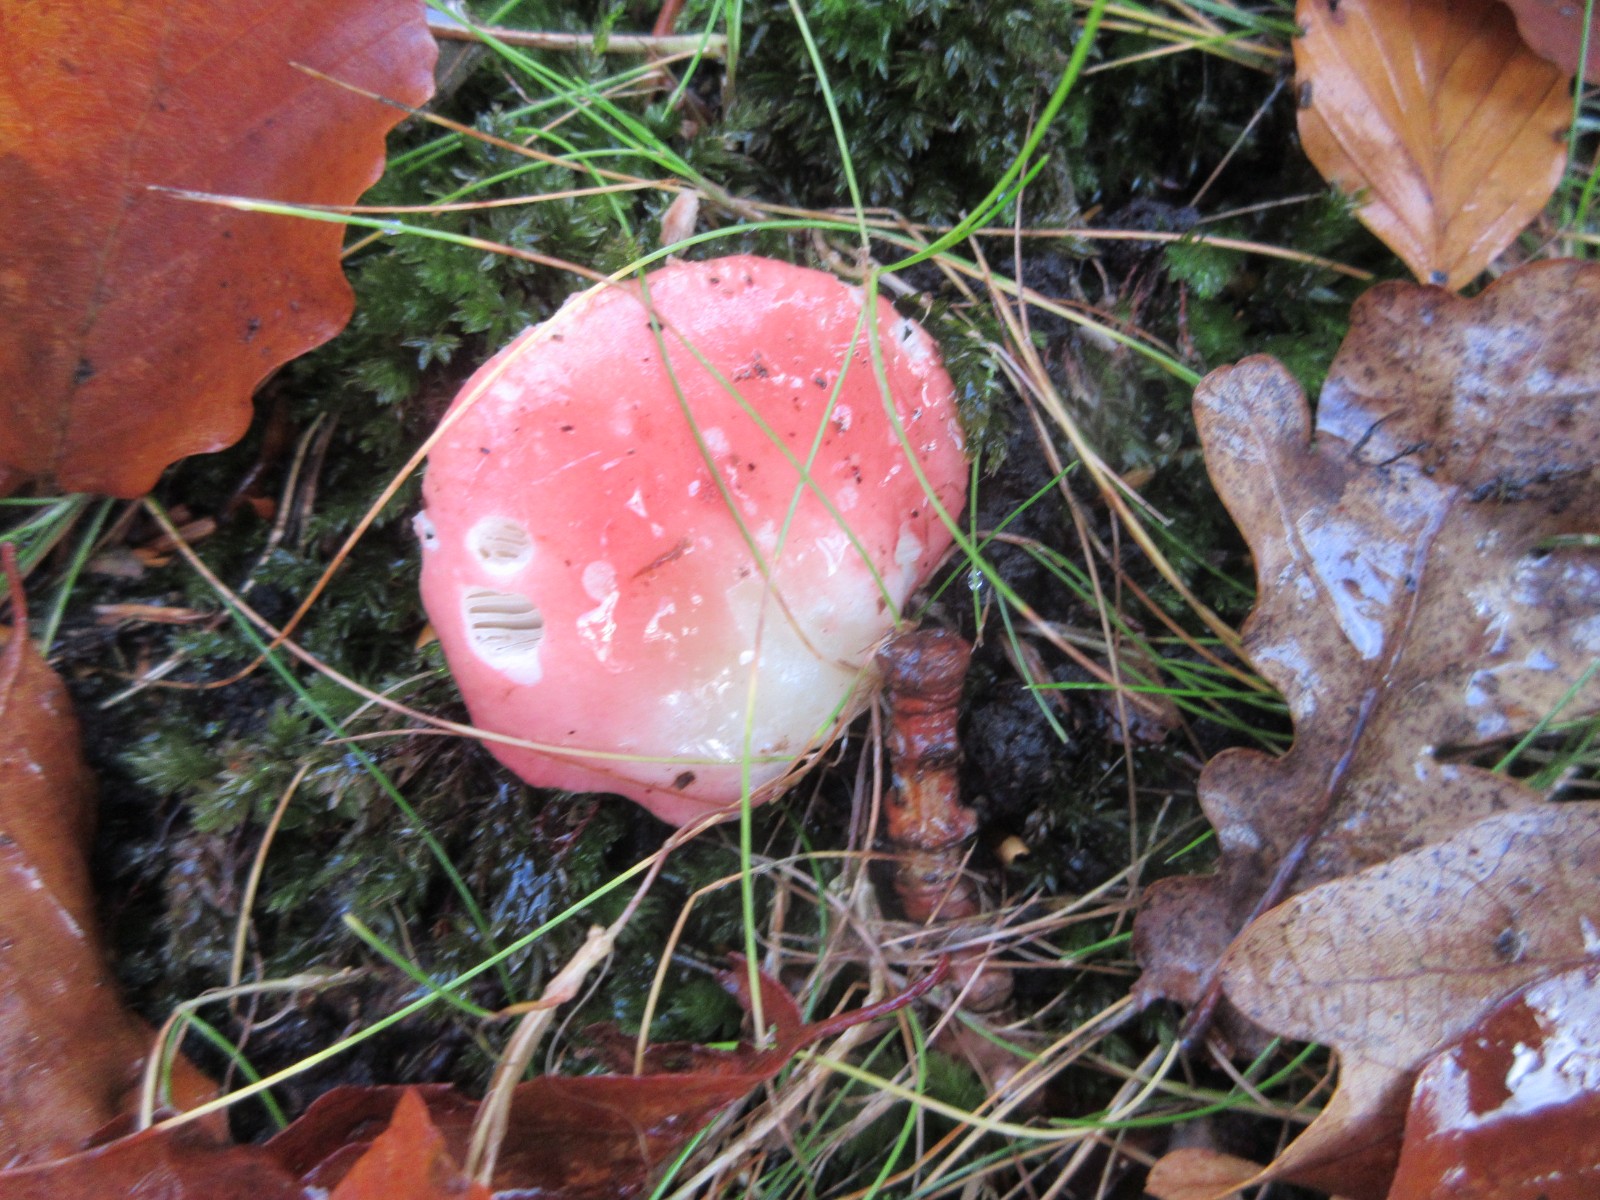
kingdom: Fungi
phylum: Basidiomycota
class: Agaricomycetes
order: Russulales
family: Russulaceae
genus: Russula
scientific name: Russula nobilis
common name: lille gift-skørhat
